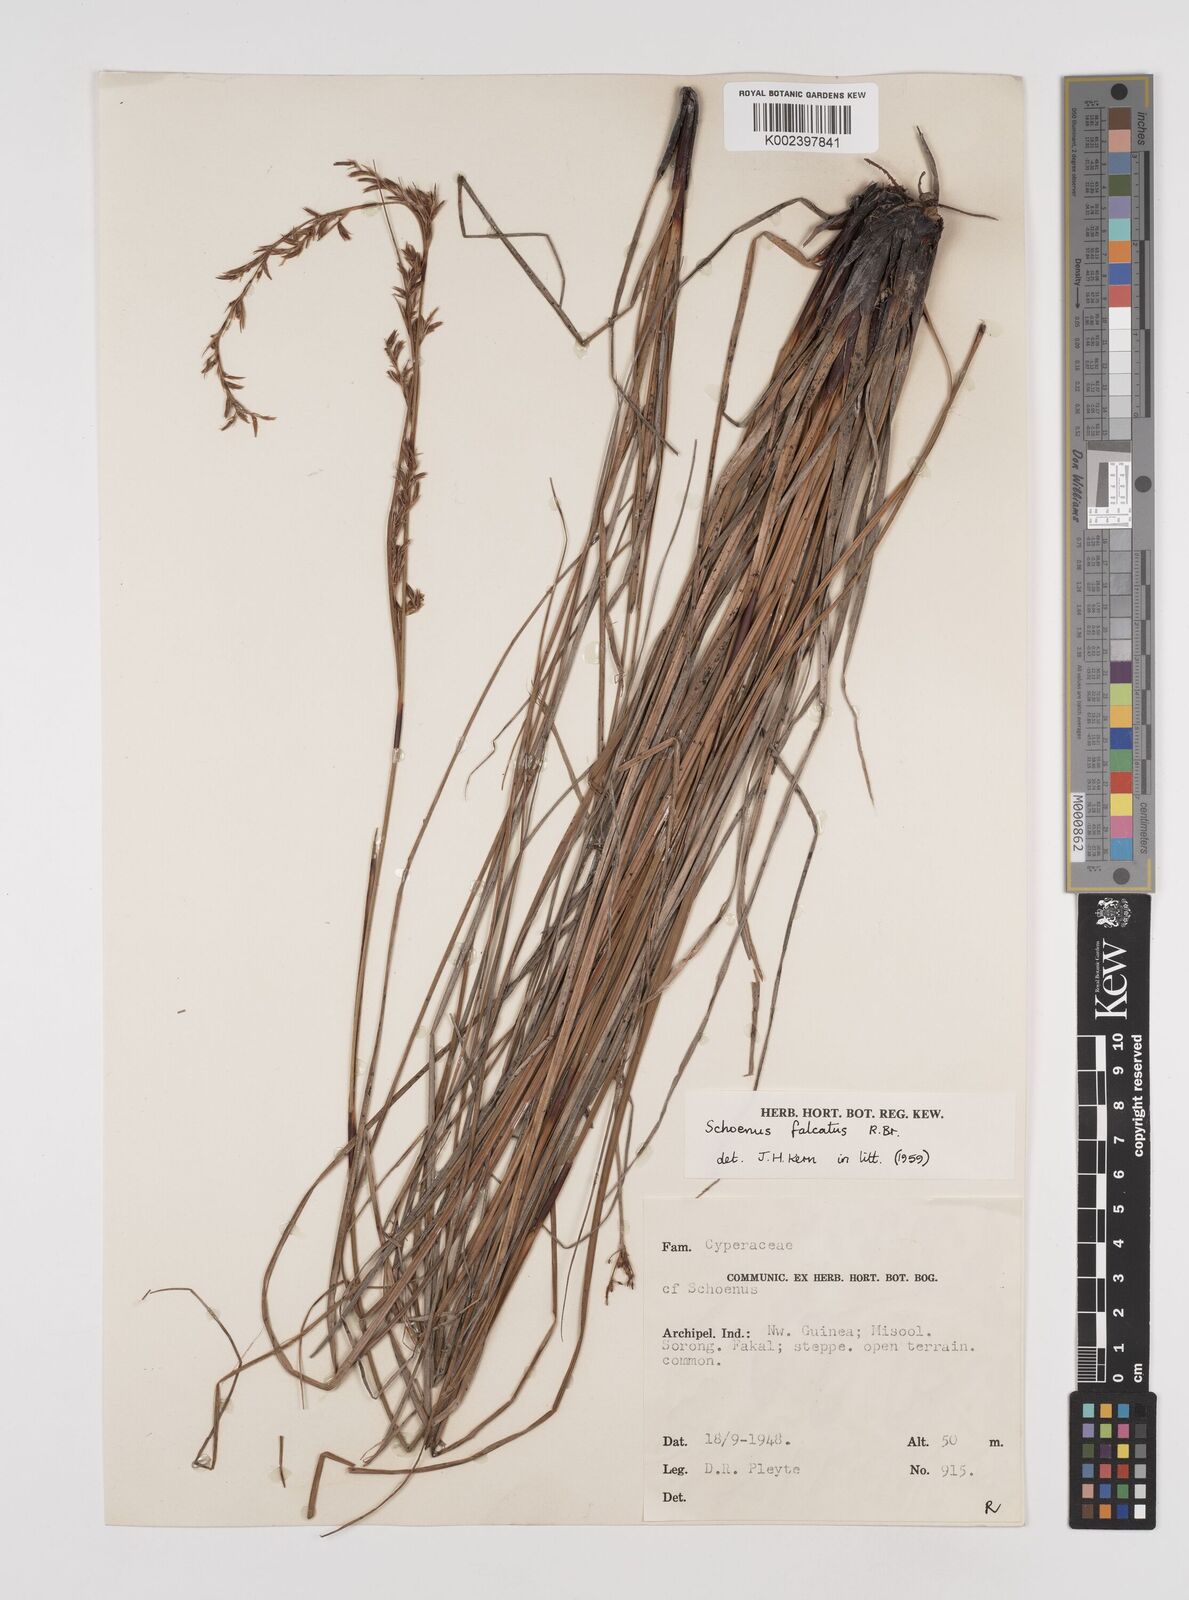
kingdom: Plantae
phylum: Tracheophyta
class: Liliopsida
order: Poales
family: Cyperaceae
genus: Schoenus
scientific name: Schoenus falcatus
